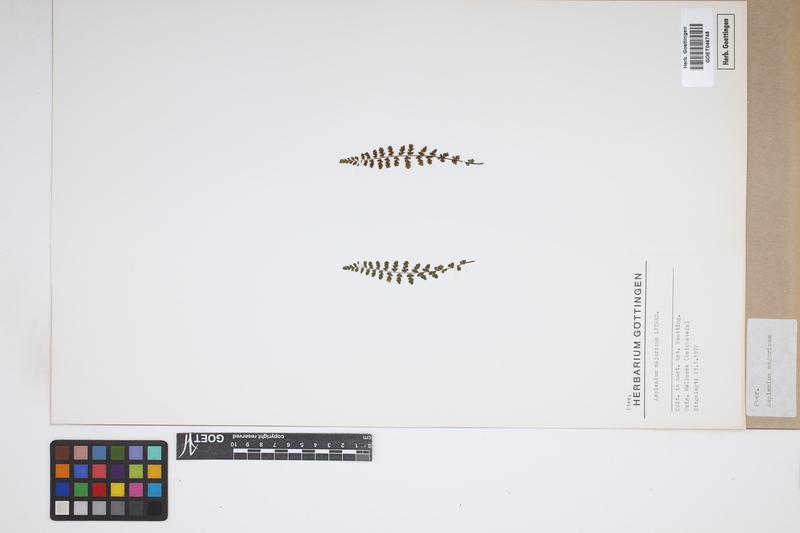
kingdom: Plantae
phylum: Tracheophyta
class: Polypodiopsida
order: Polypodiales
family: Aspleniaceae
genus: Asplenium
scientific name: Asplenium petrarchae
